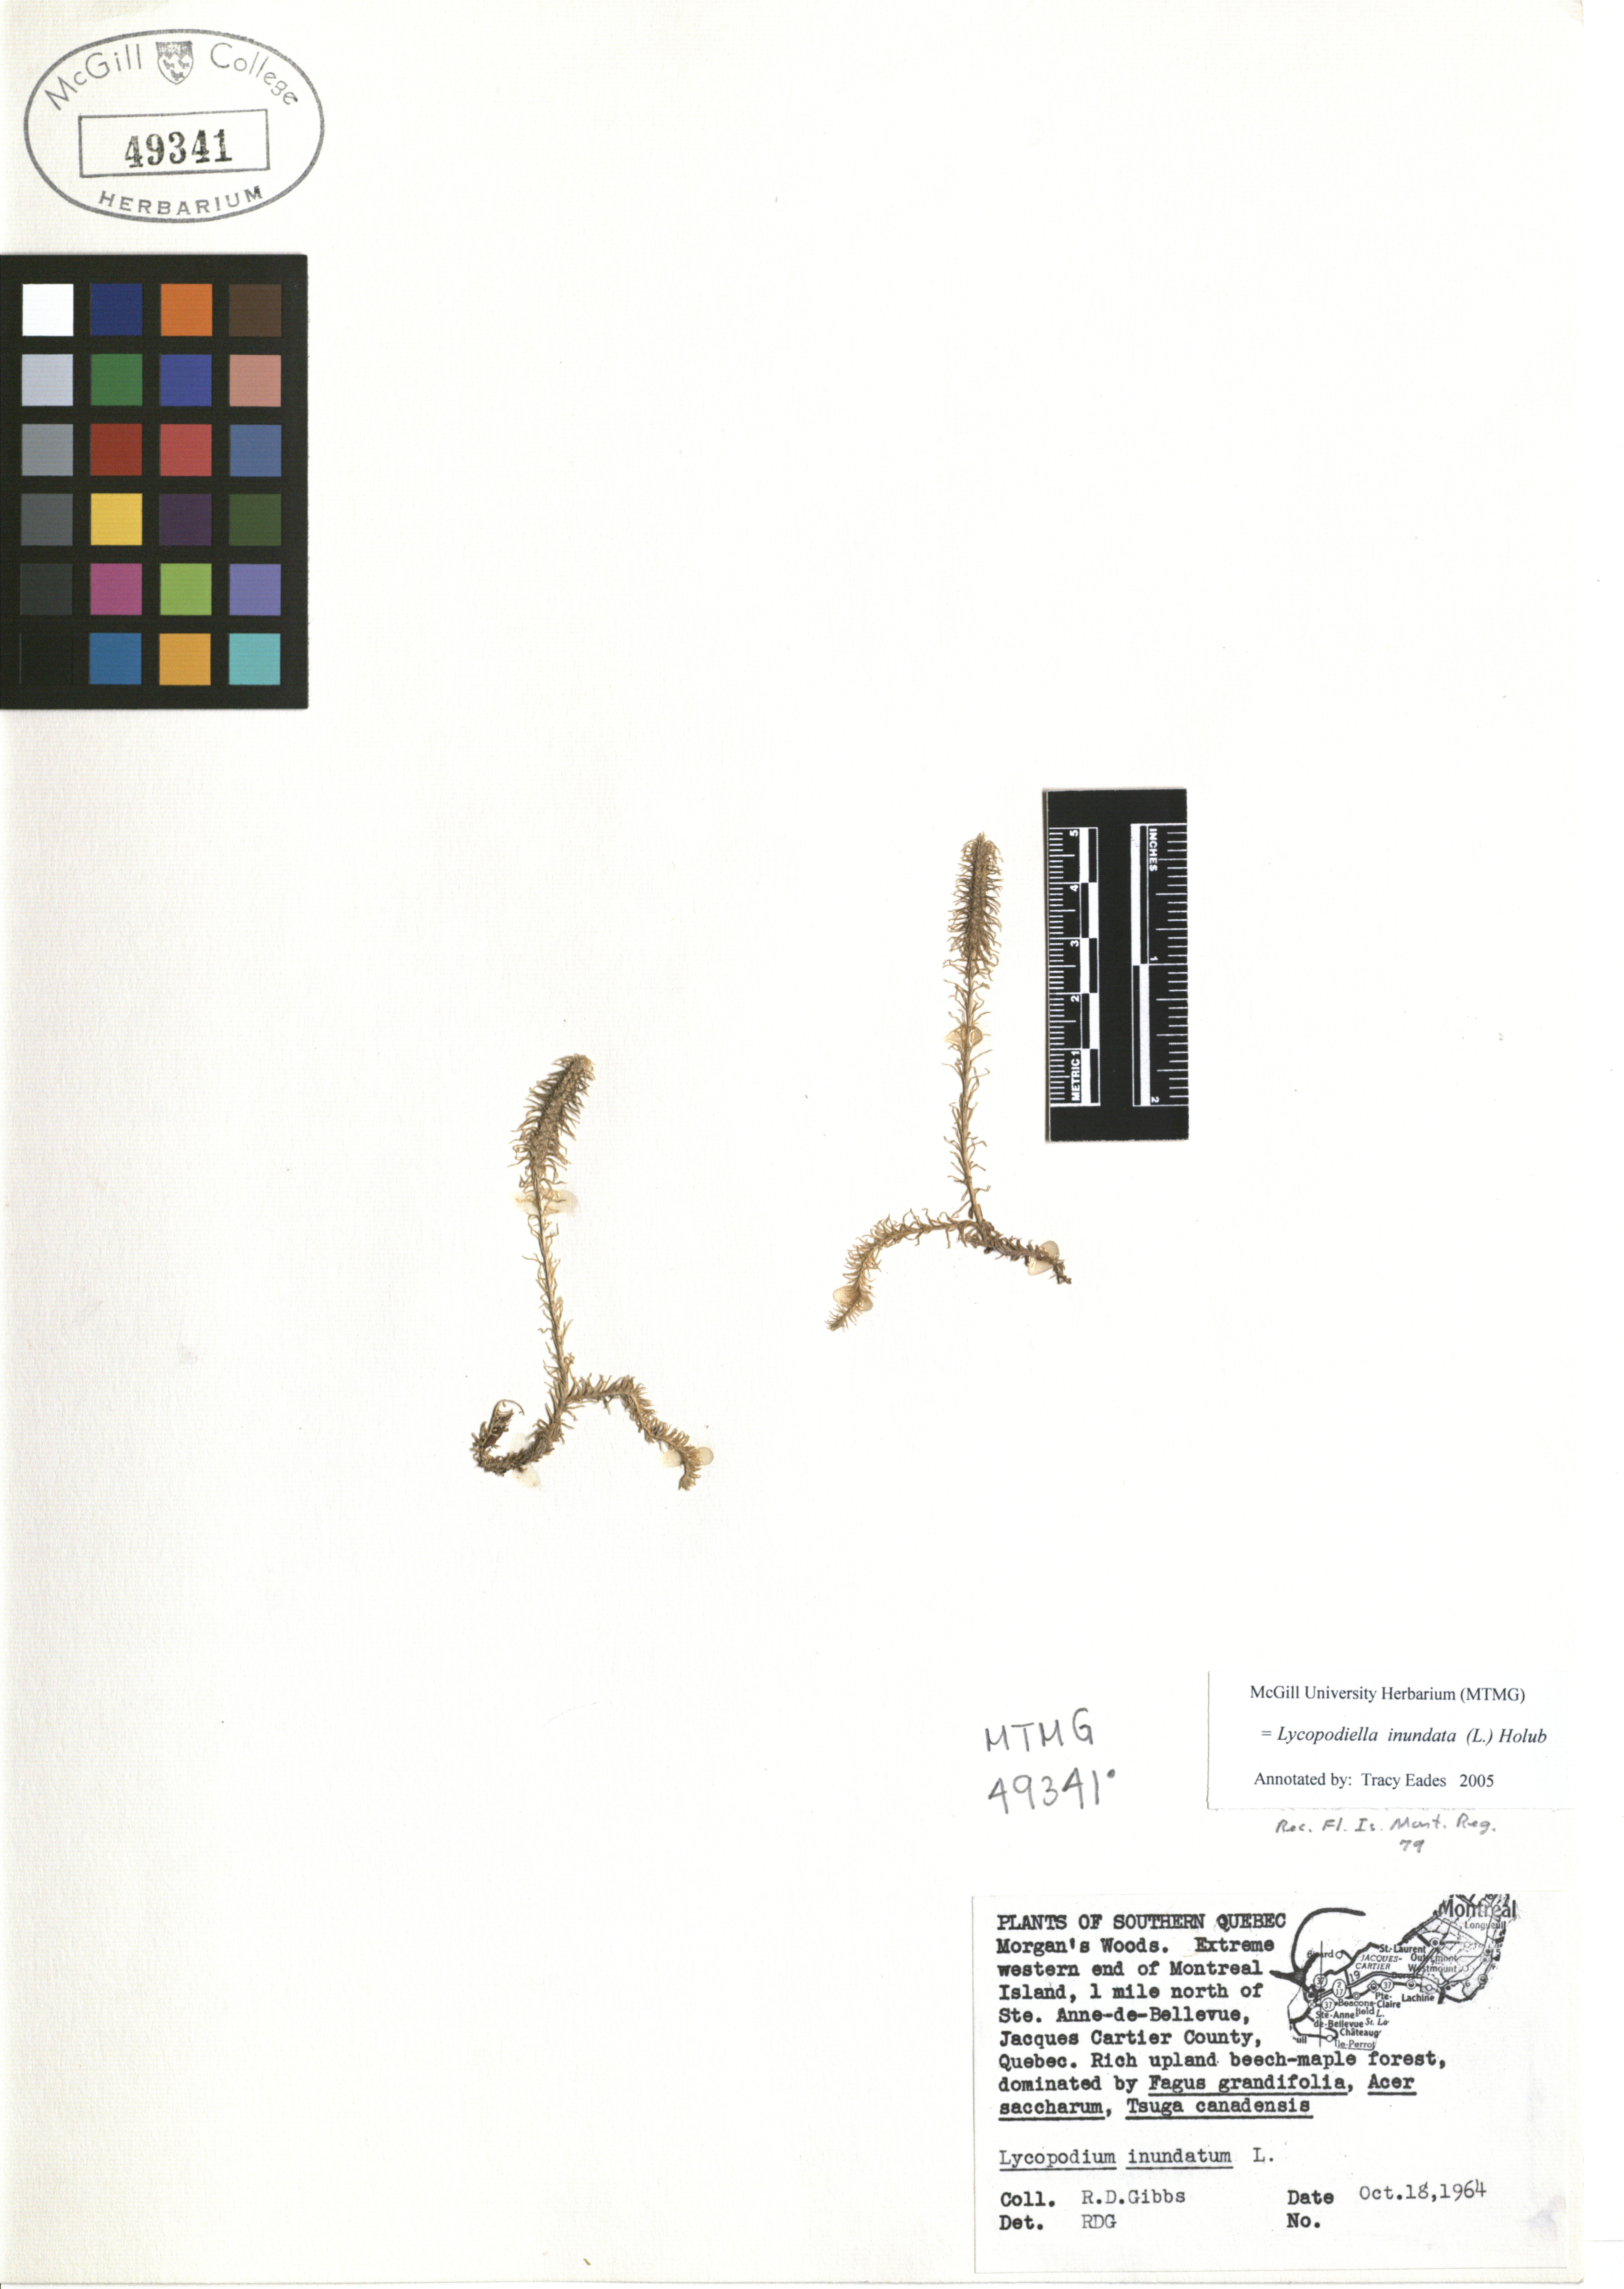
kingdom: Plantae
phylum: Tracheophyta
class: Lycopodiopsida
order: Lycopodiales
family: Lycopodiaceae
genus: Lycopodiella
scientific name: Lycopodiella inundata
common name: Marsh clubmoss
